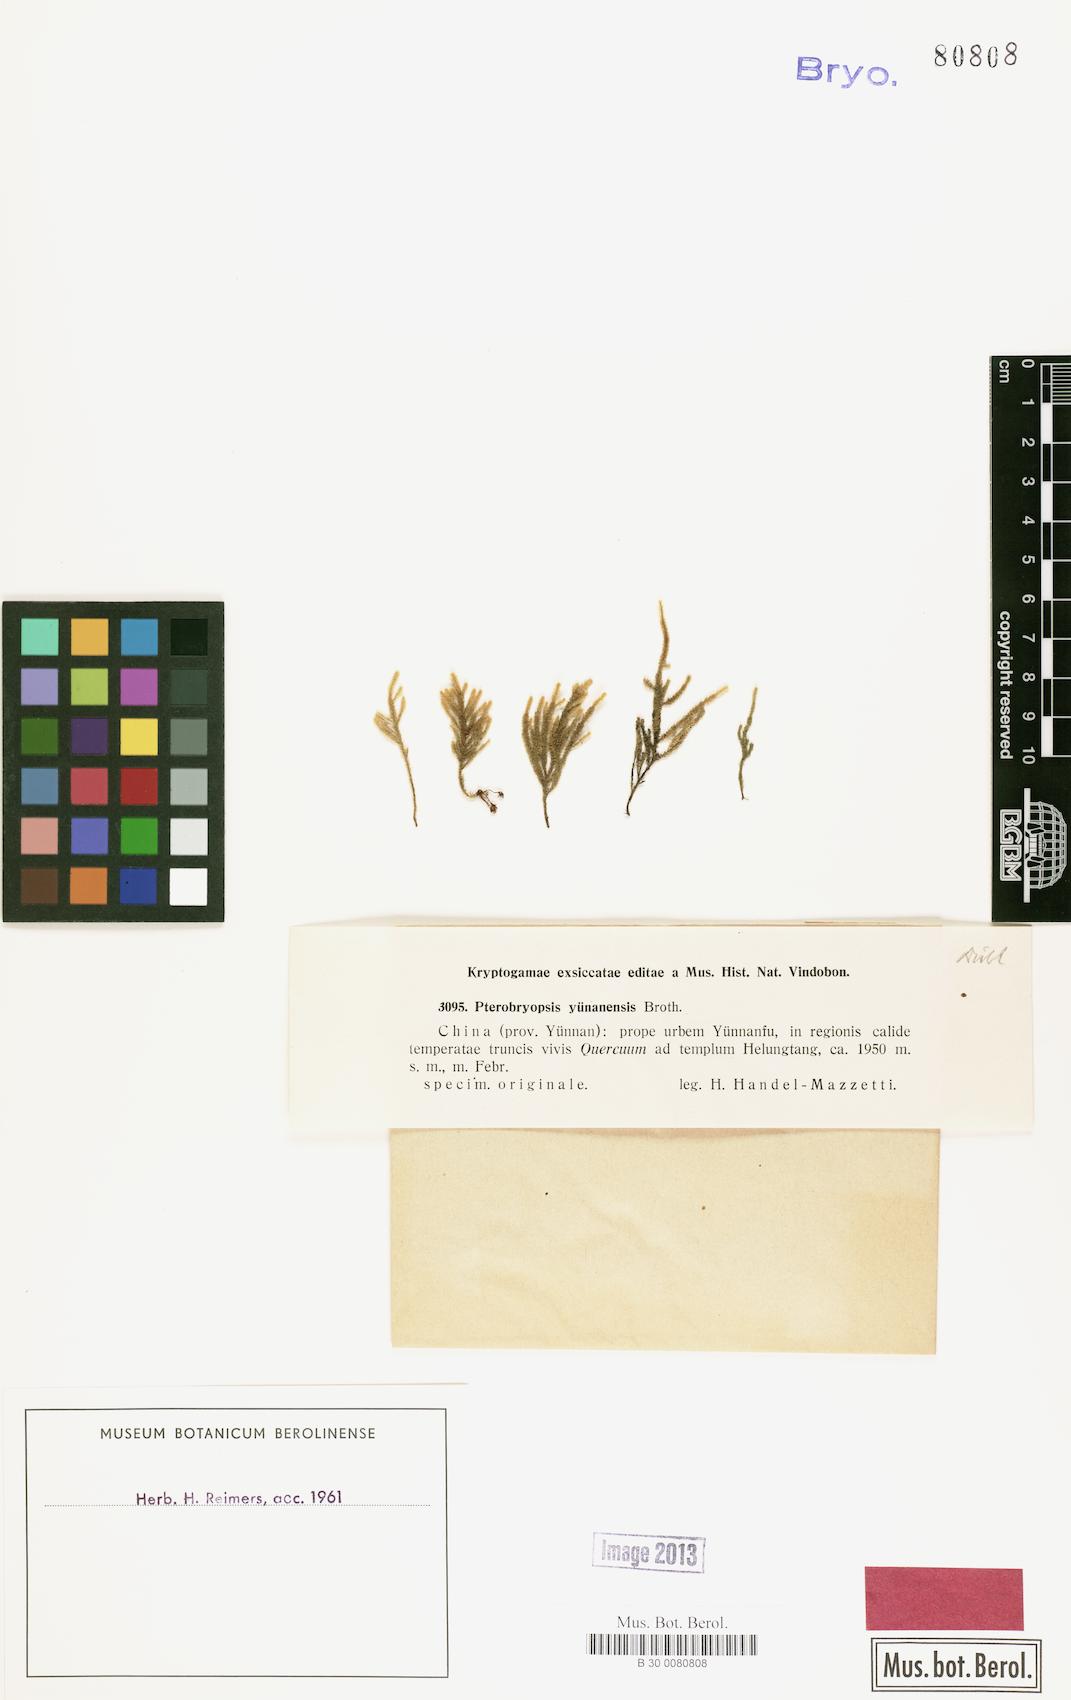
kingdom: Plantae
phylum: Bryophyta
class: Bryopsida
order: Hypnales
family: Pterobryaceae
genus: Pterobryopsis
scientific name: Pterobryopsis
